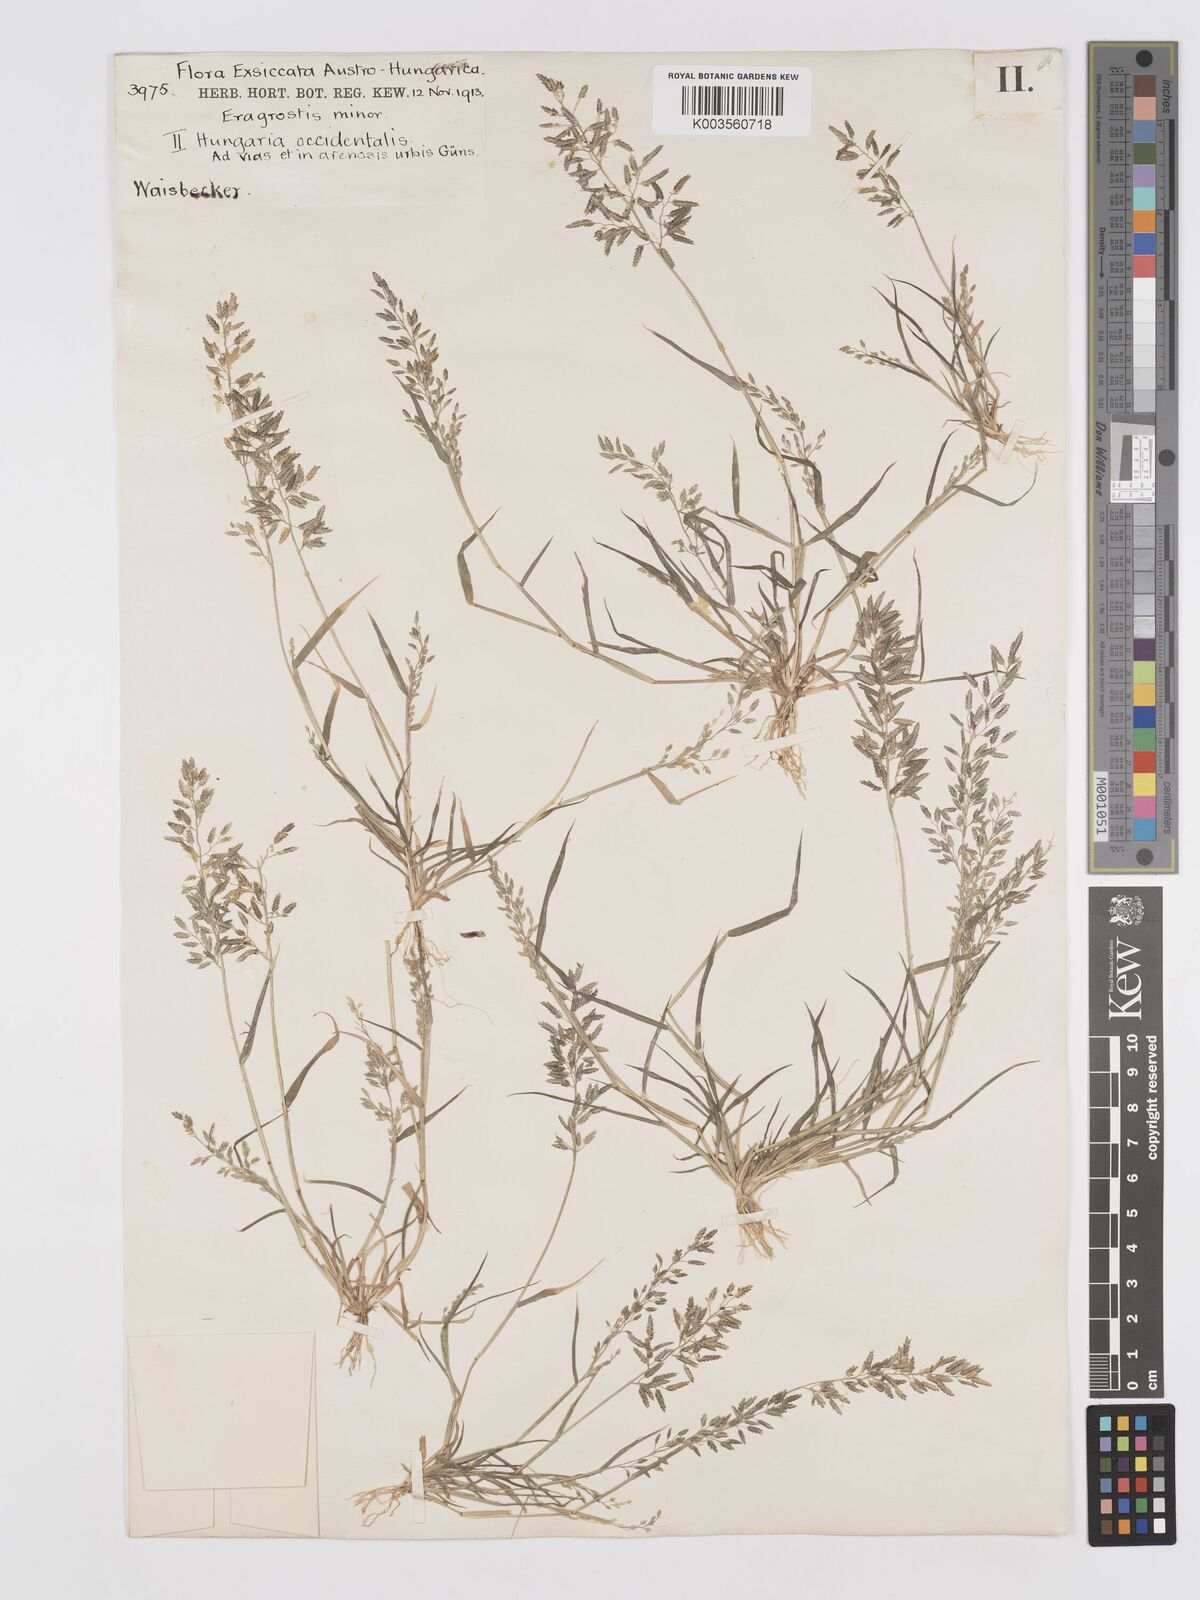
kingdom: Plantae
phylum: Tracheophyta
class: Liliopsida
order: Poales
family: Poaceae
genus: Eragrostis
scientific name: Eragrostis minor
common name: Small love-grass
